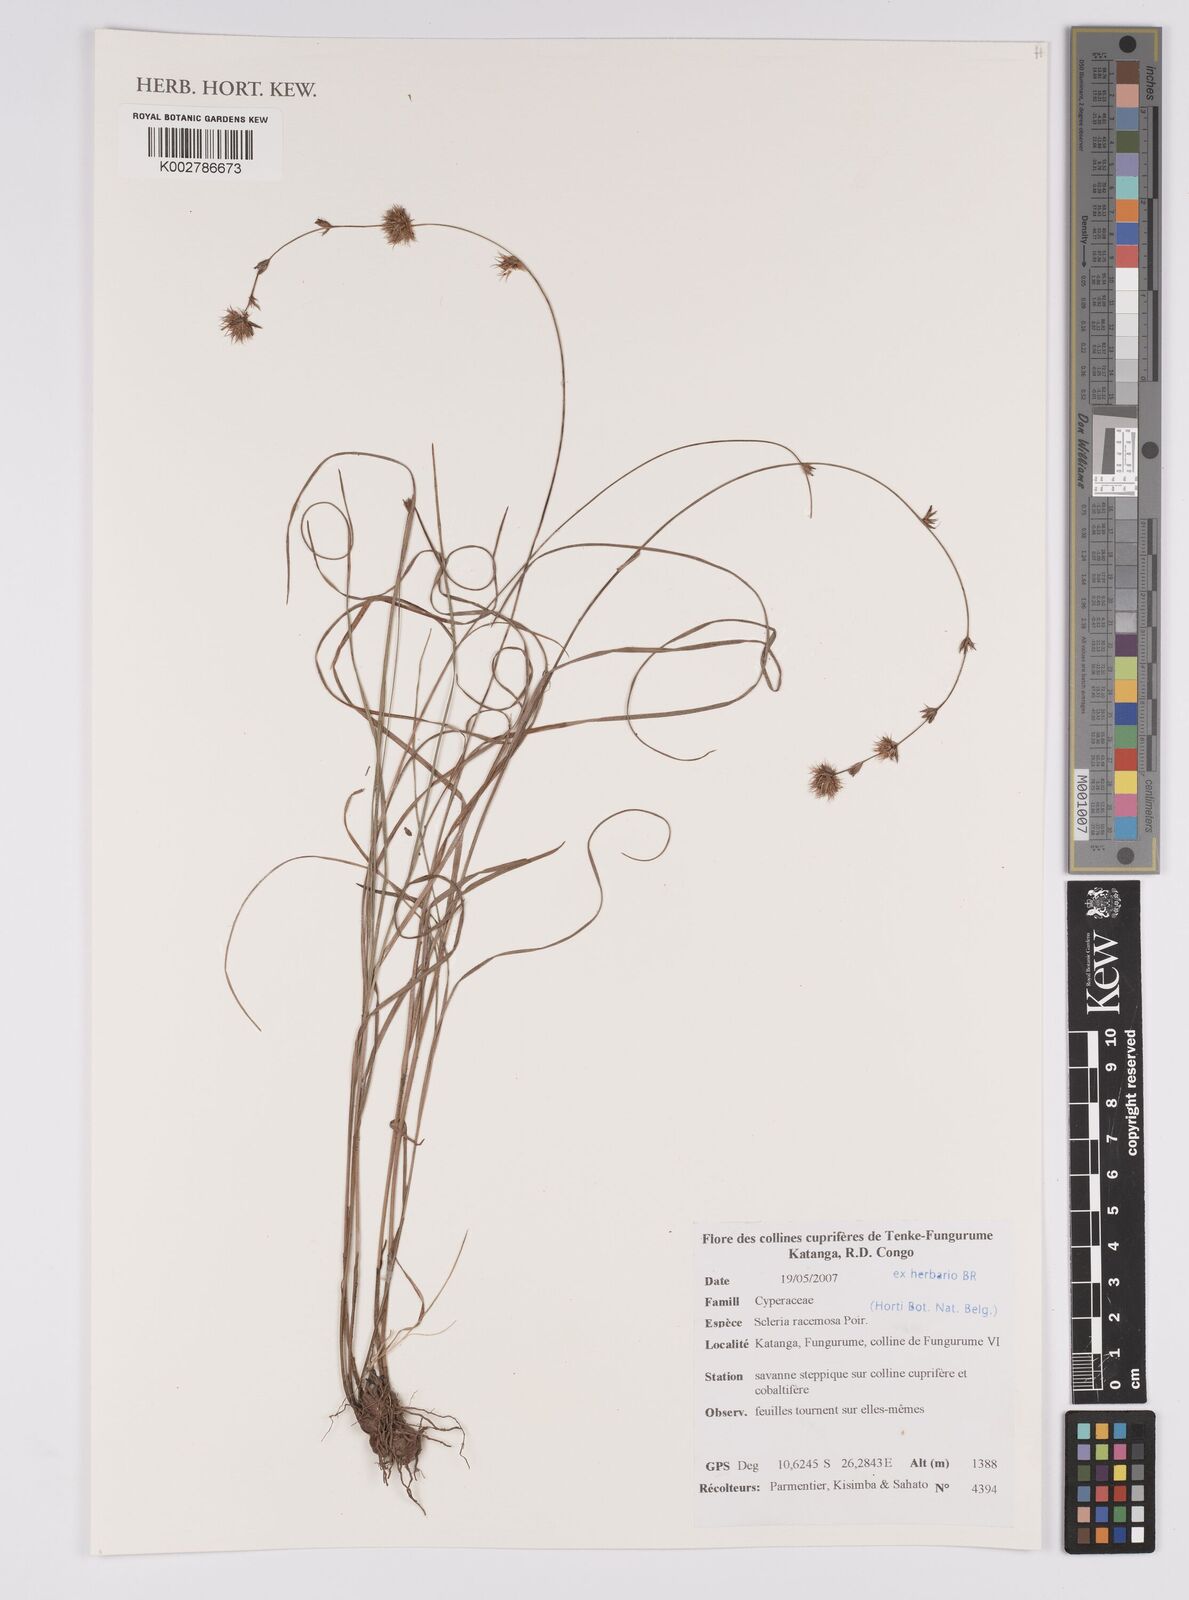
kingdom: Plantae
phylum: Tracheophyta
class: Liliopsida
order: Poales
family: Cyperaceae
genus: Scleria
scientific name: Scleria racemosa
